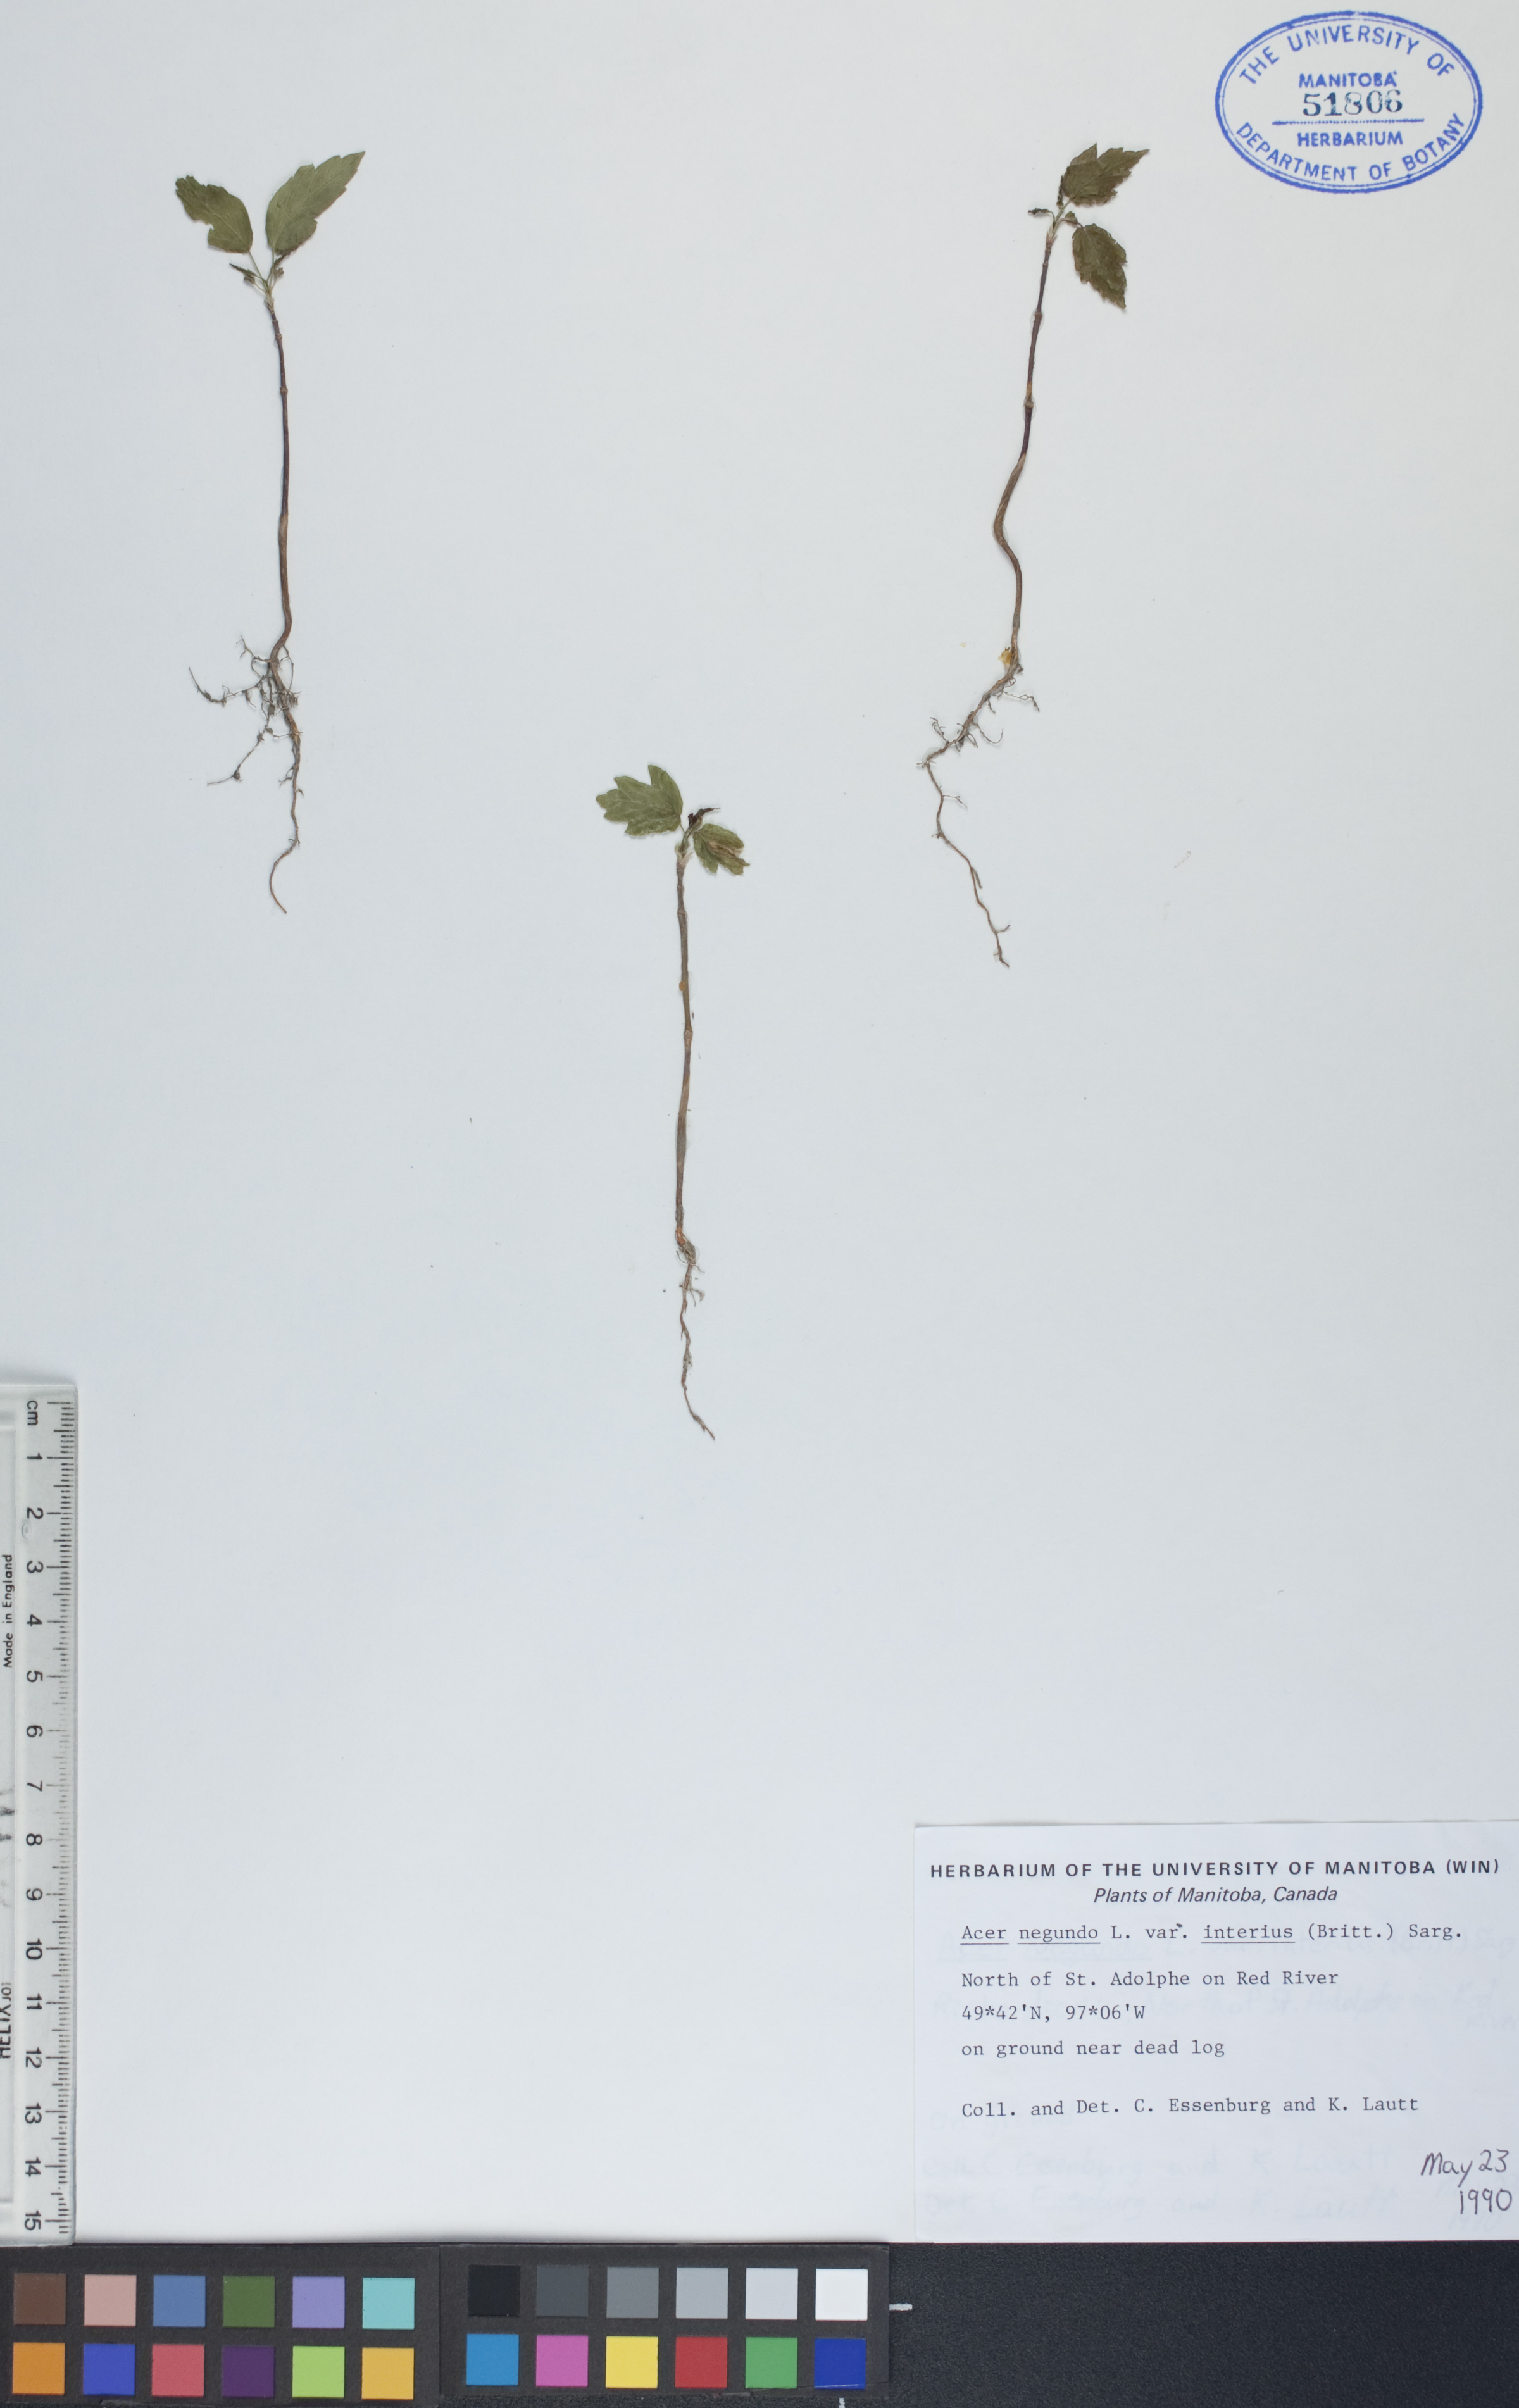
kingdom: Plantae
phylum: Tracheophyta
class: Magnoliopsida
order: Sapindales
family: Sapindaceae
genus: Acer
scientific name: Acer negundo
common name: Ashleaf maple
